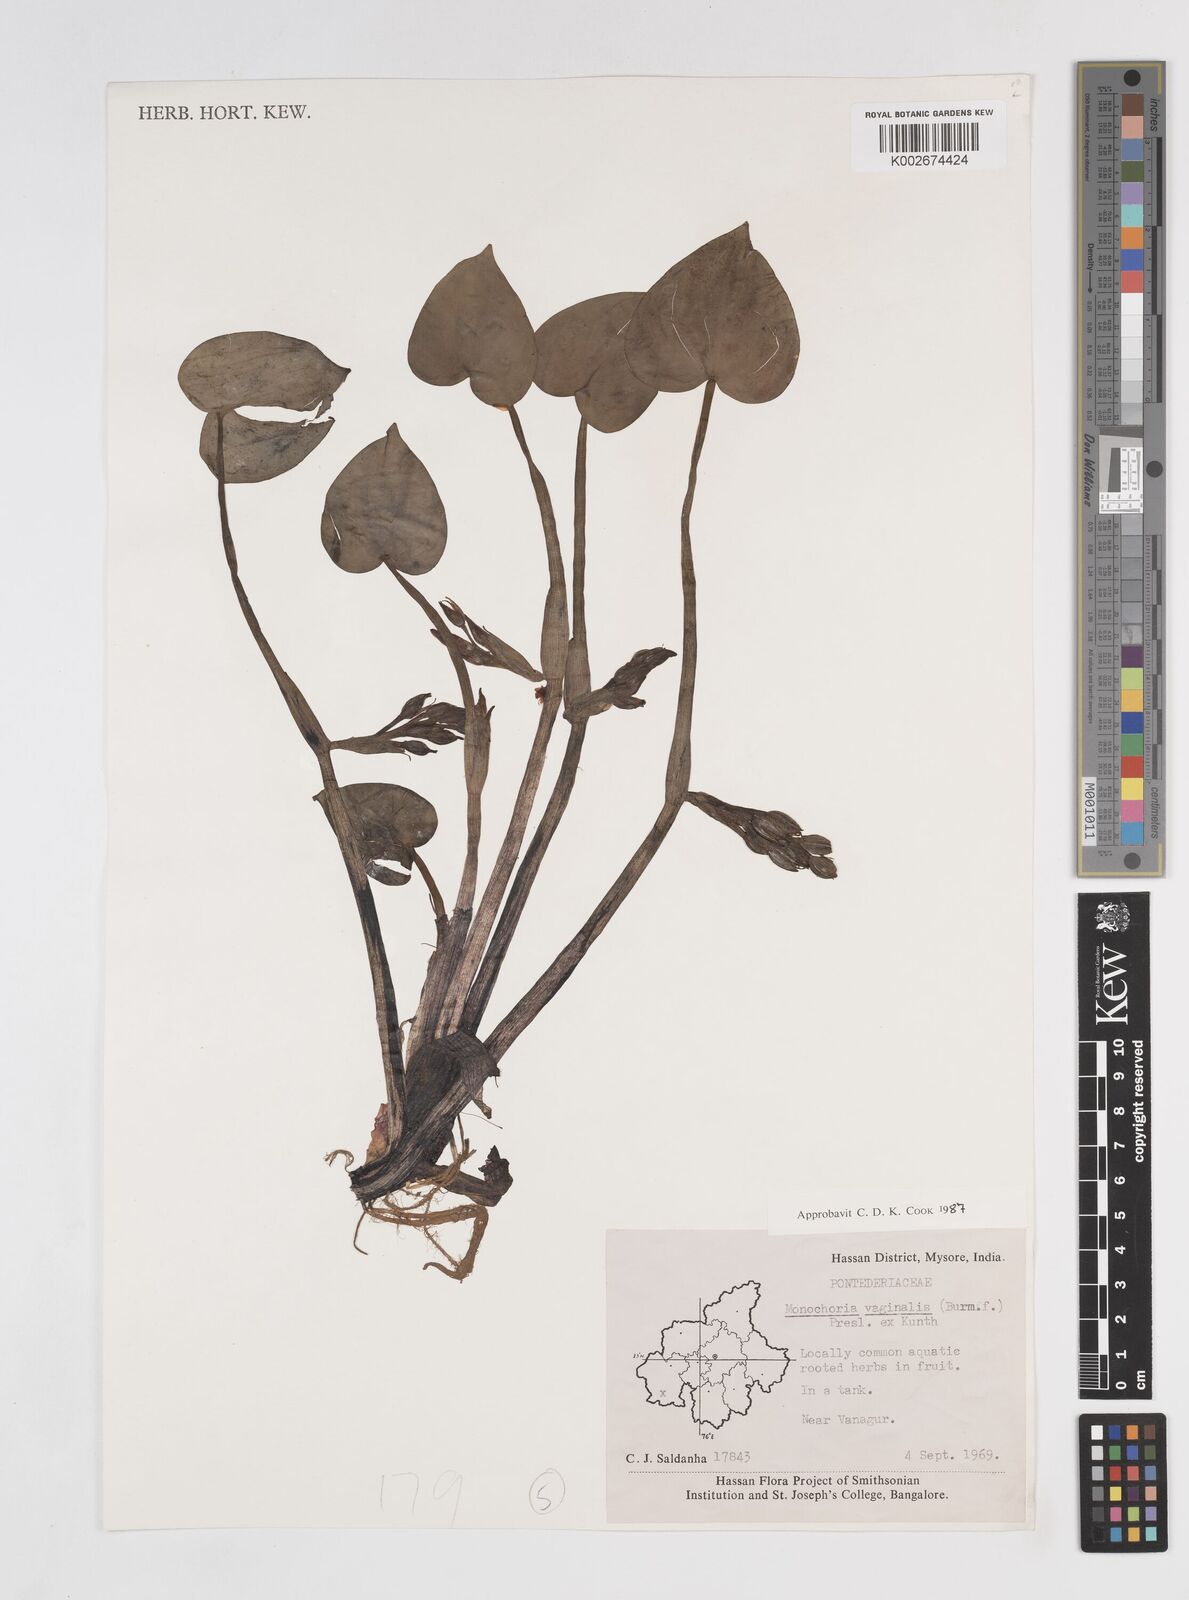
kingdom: Plantae
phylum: Tracheophyta
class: Liliopsida
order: Commelinales
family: Pontederiaceae
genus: Pontederia
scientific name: Pontederia vaginalis
